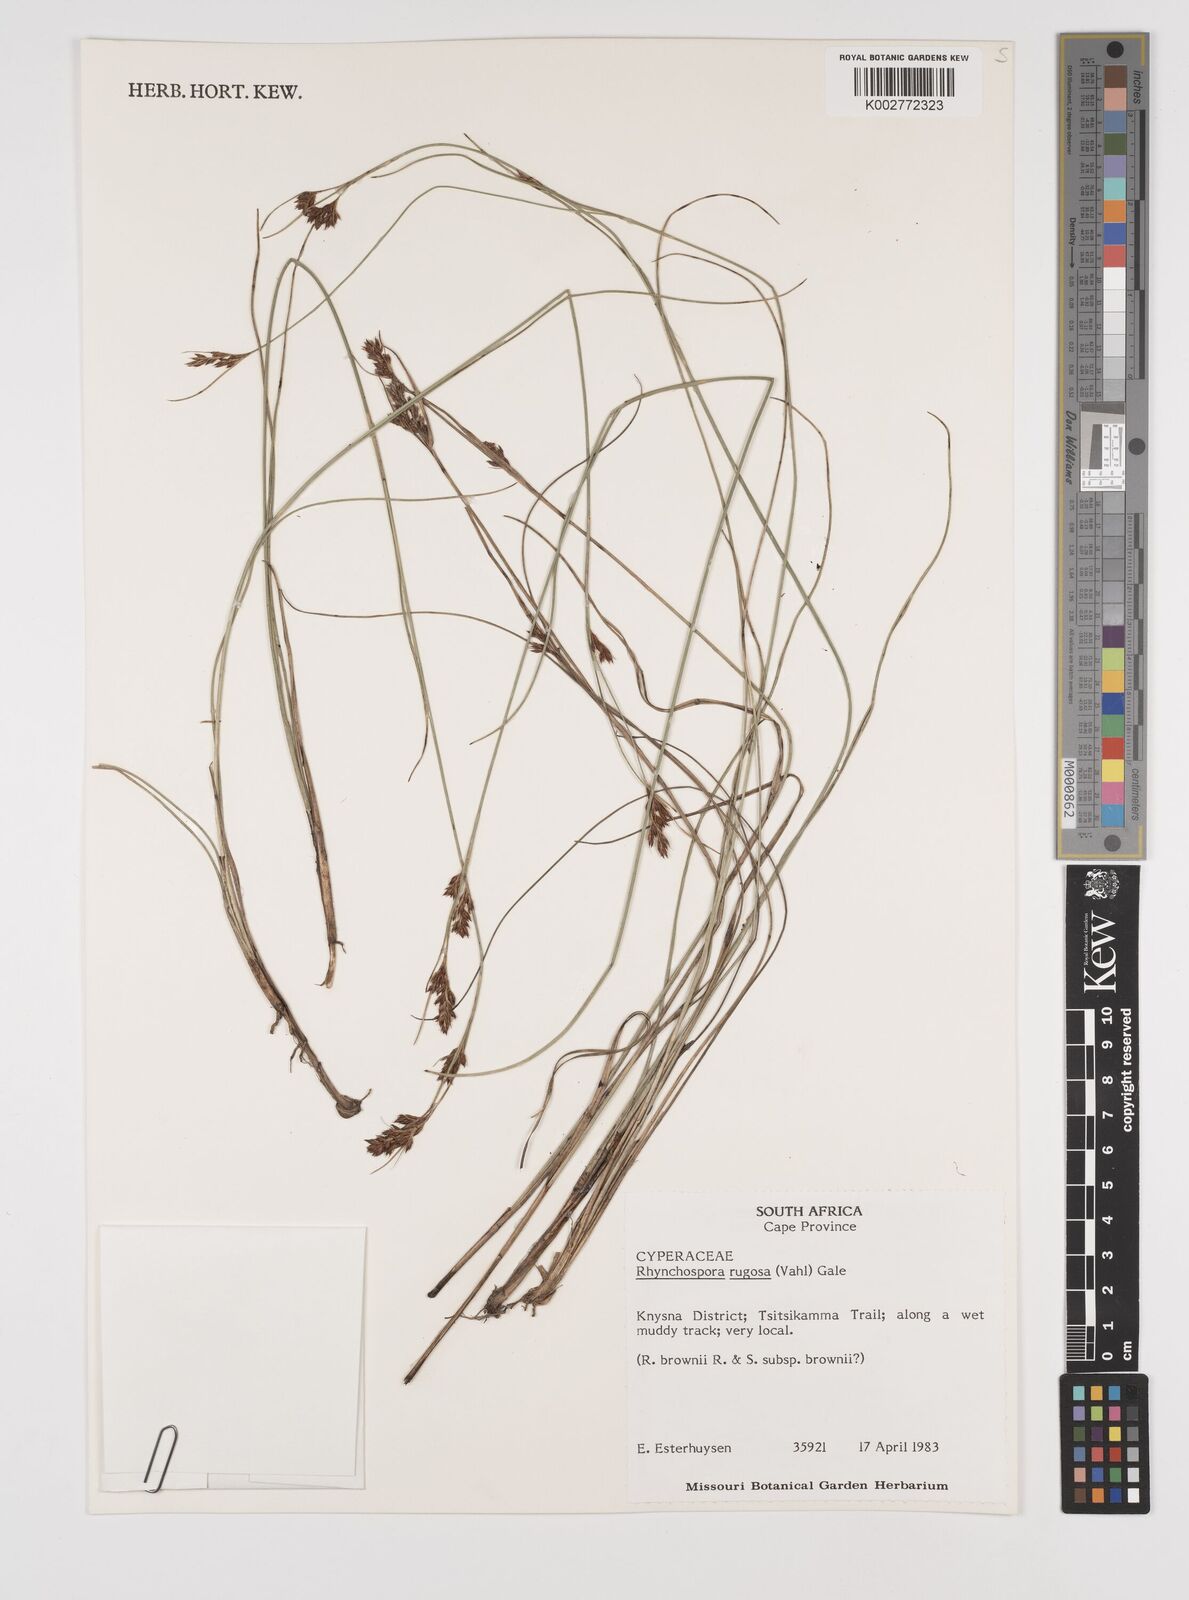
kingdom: Plantae
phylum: Tracheophyta
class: Liliopsida
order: Poales
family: Cyperaceae
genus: Rhynchospora
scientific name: Rhynchospora rugosa
